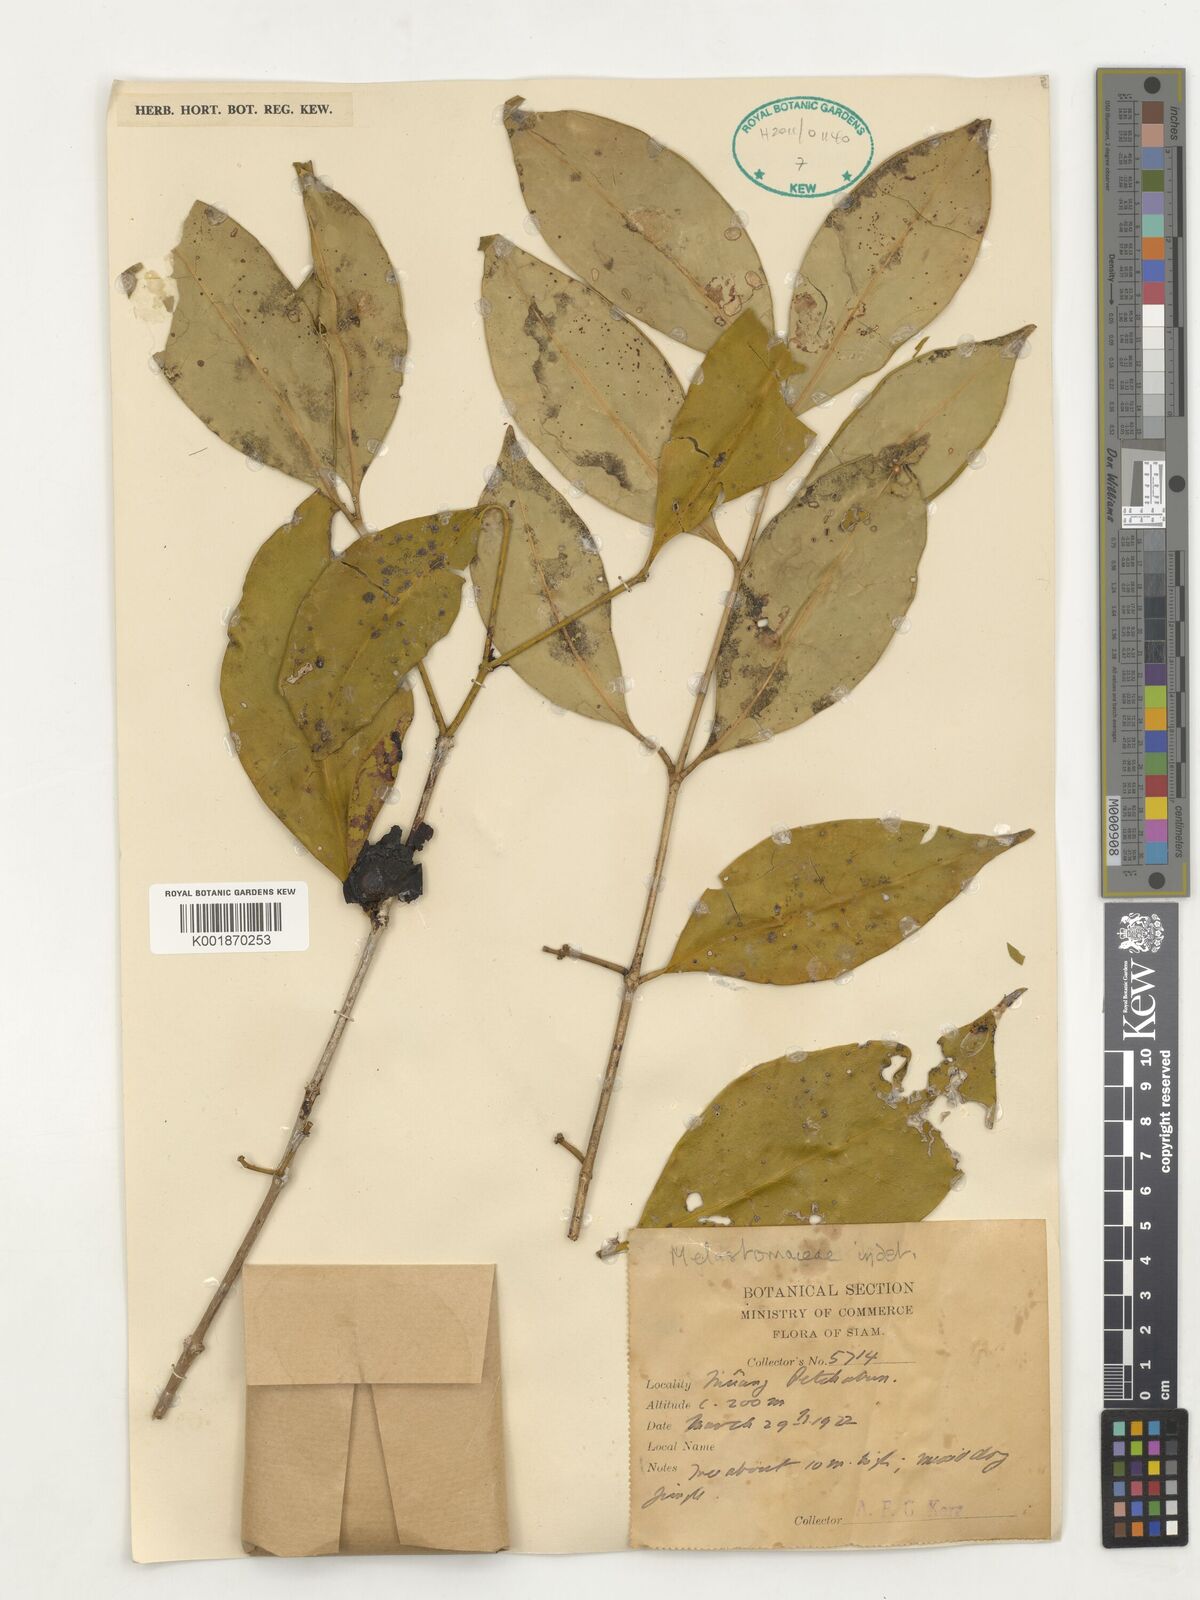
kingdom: Plantae
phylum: Tracheophyta
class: Magnoliopsida
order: Myrtales
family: Melastomataceae
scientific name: Melastomataceae
